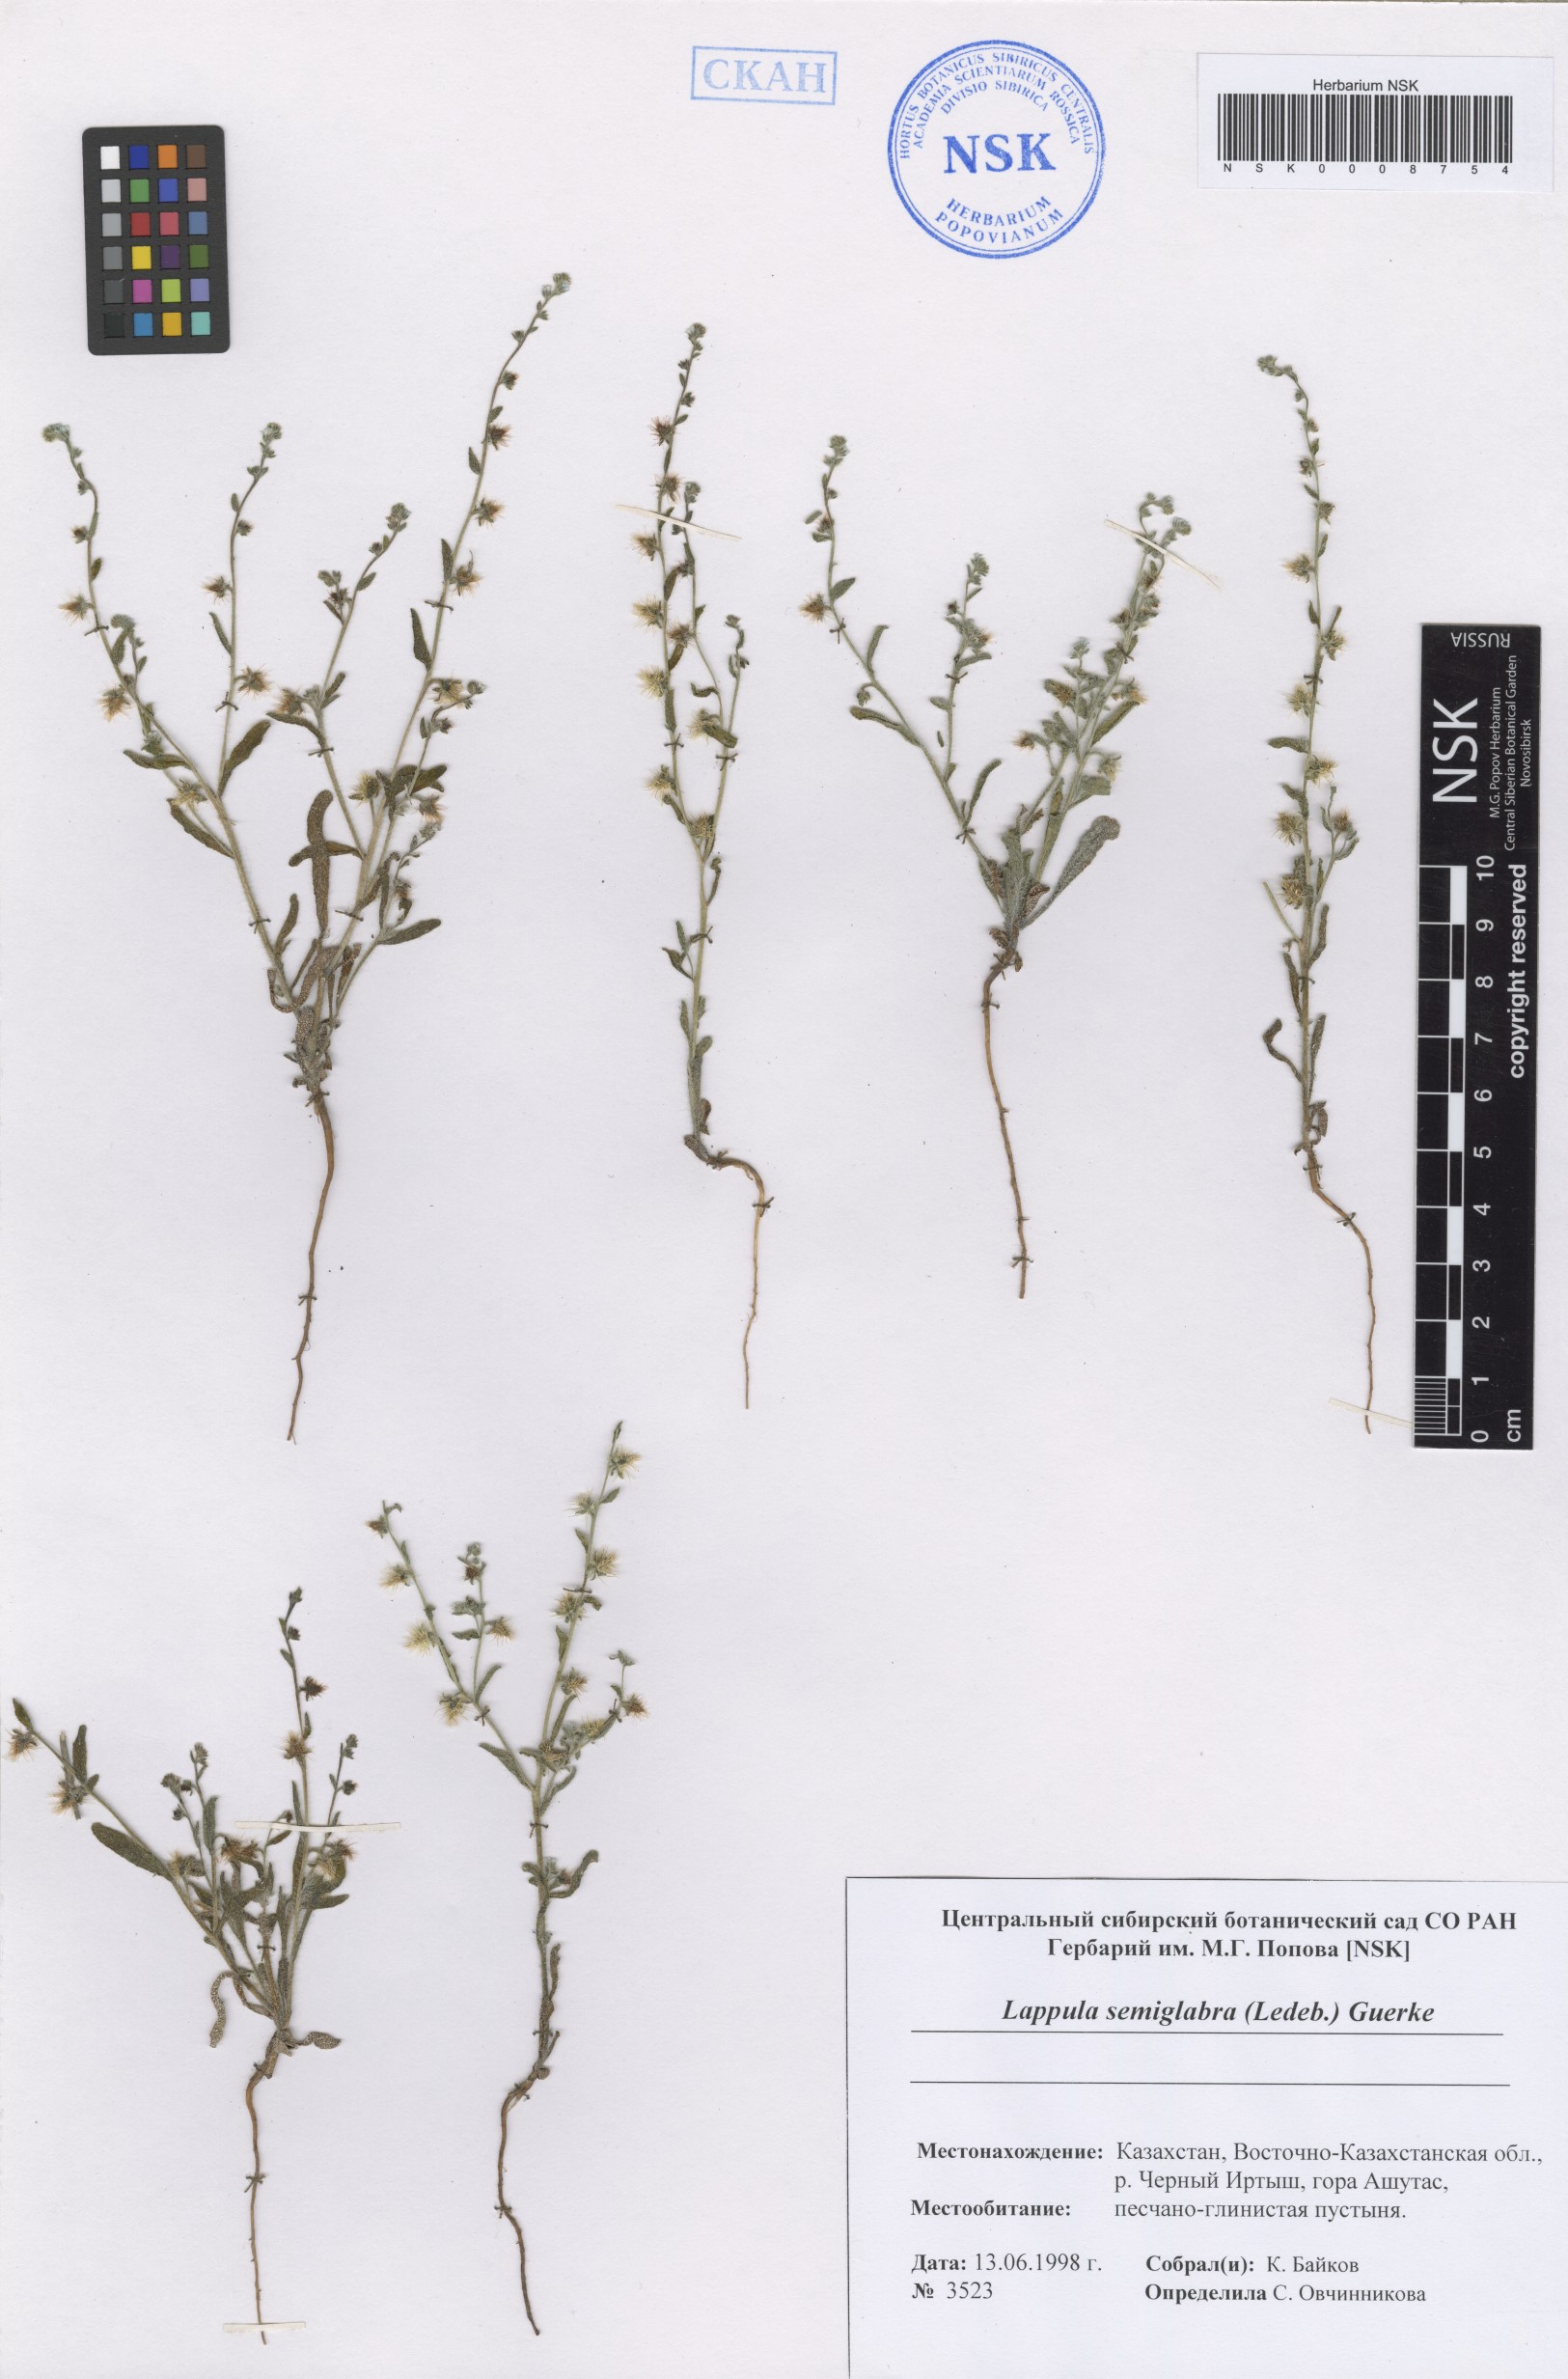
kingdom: Plantae
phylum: Tracheophyta
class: Magnoliopsida
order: Boraginales
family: Boraginaceae
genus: Lappula
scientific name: Lappula patula
